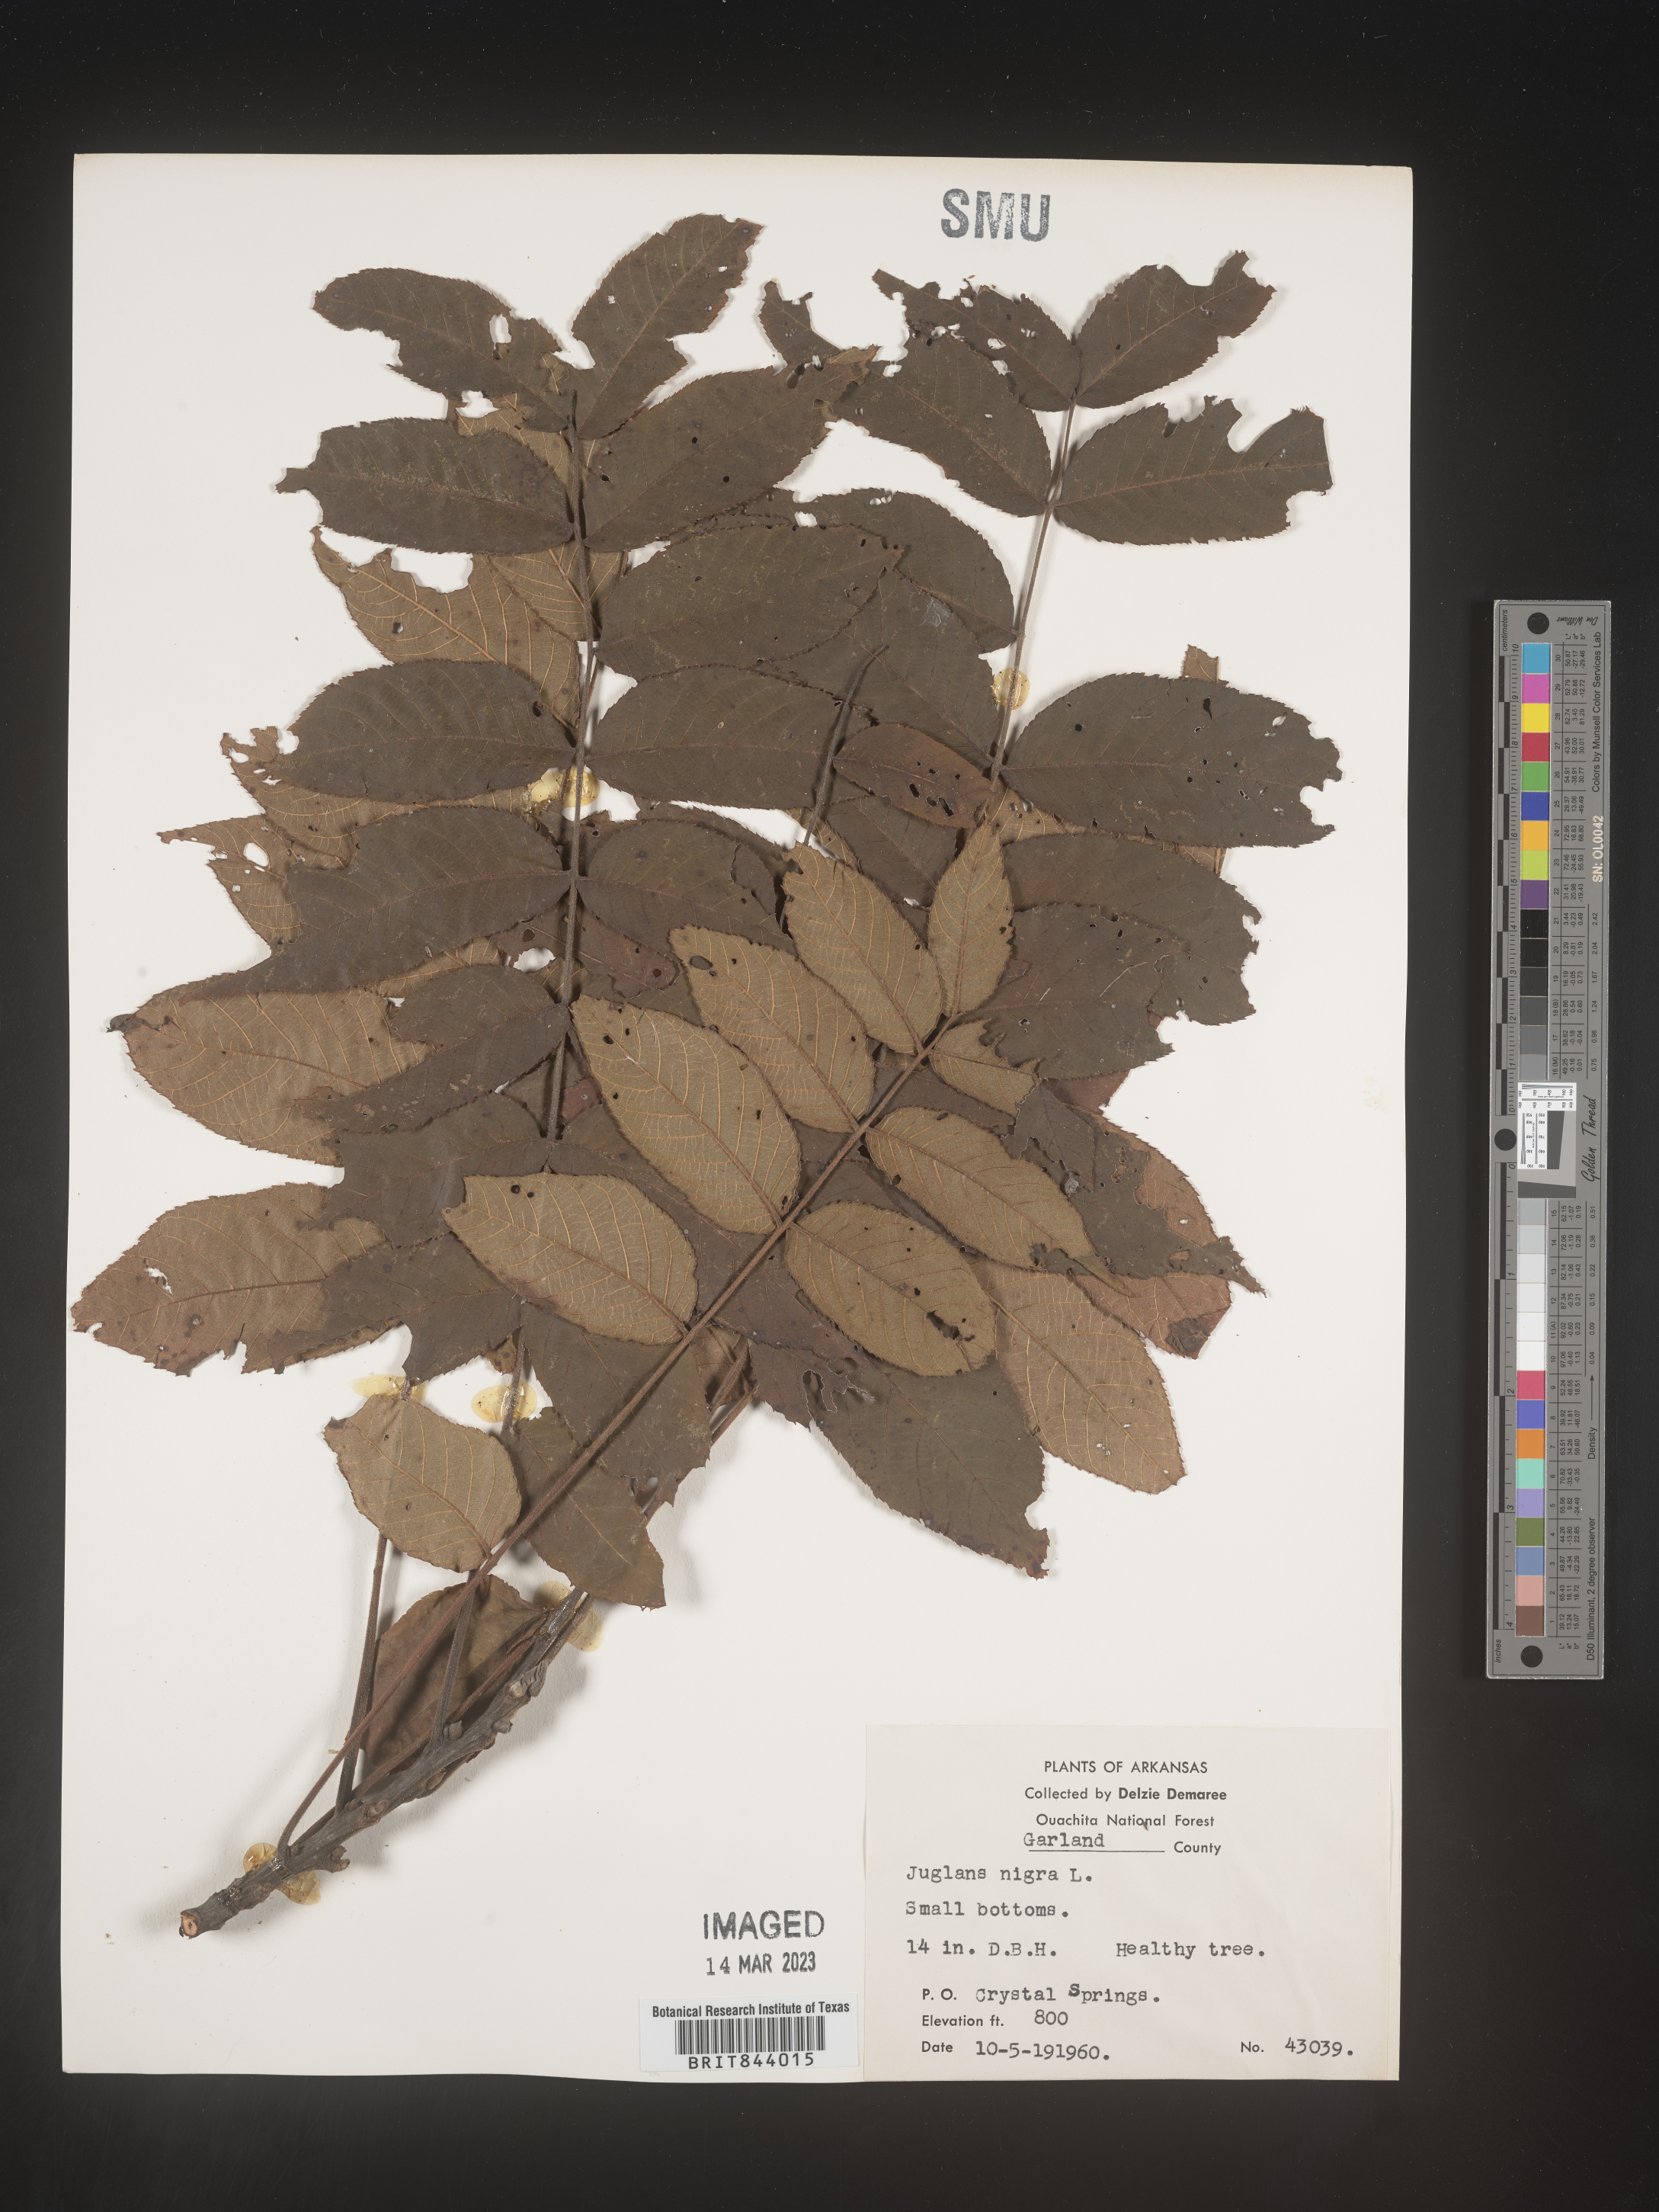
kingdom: Plantae
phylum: Tracheophyta
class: Magnoliopsida
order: Fagales
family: Juglandaceae
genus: Juglans
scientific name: Juglans nigra
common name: Black walnut
